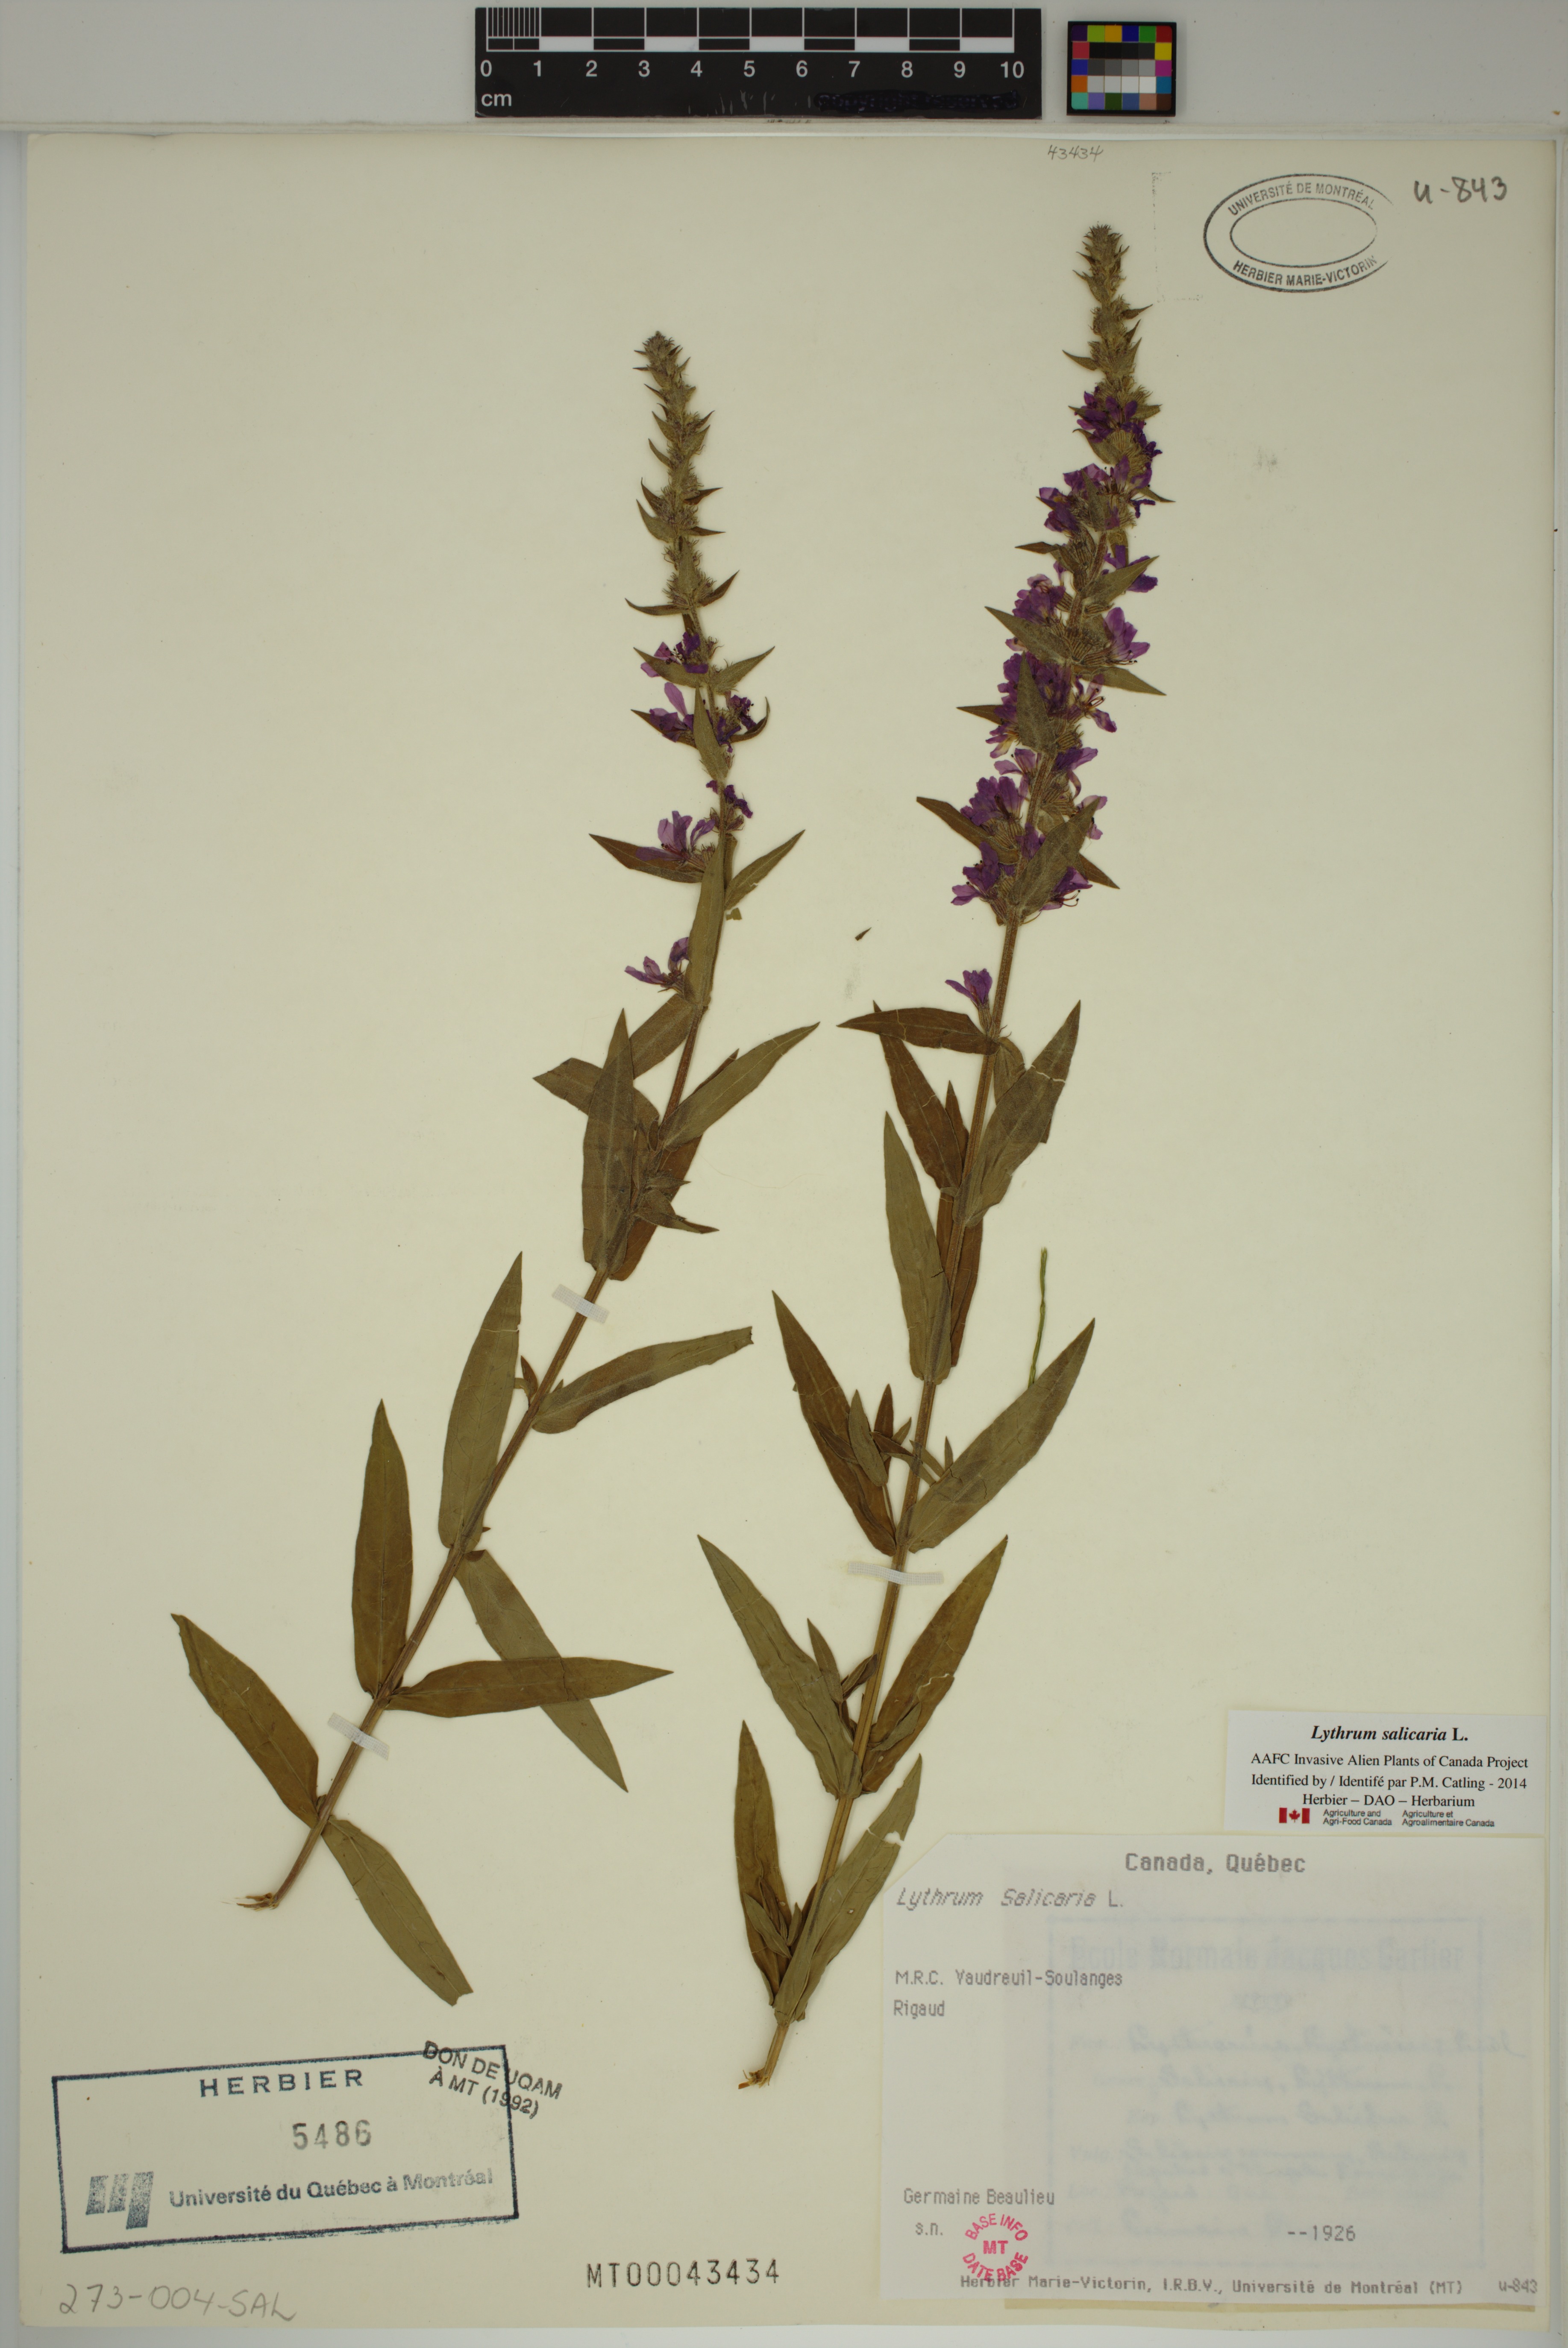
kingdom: Plantae
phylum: Tracheophyta
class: Magnoliopsida
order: Myrtales
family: Lythraceae
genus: Lythrum
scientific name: Lythrum salicaria
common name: Purple loosestrife
